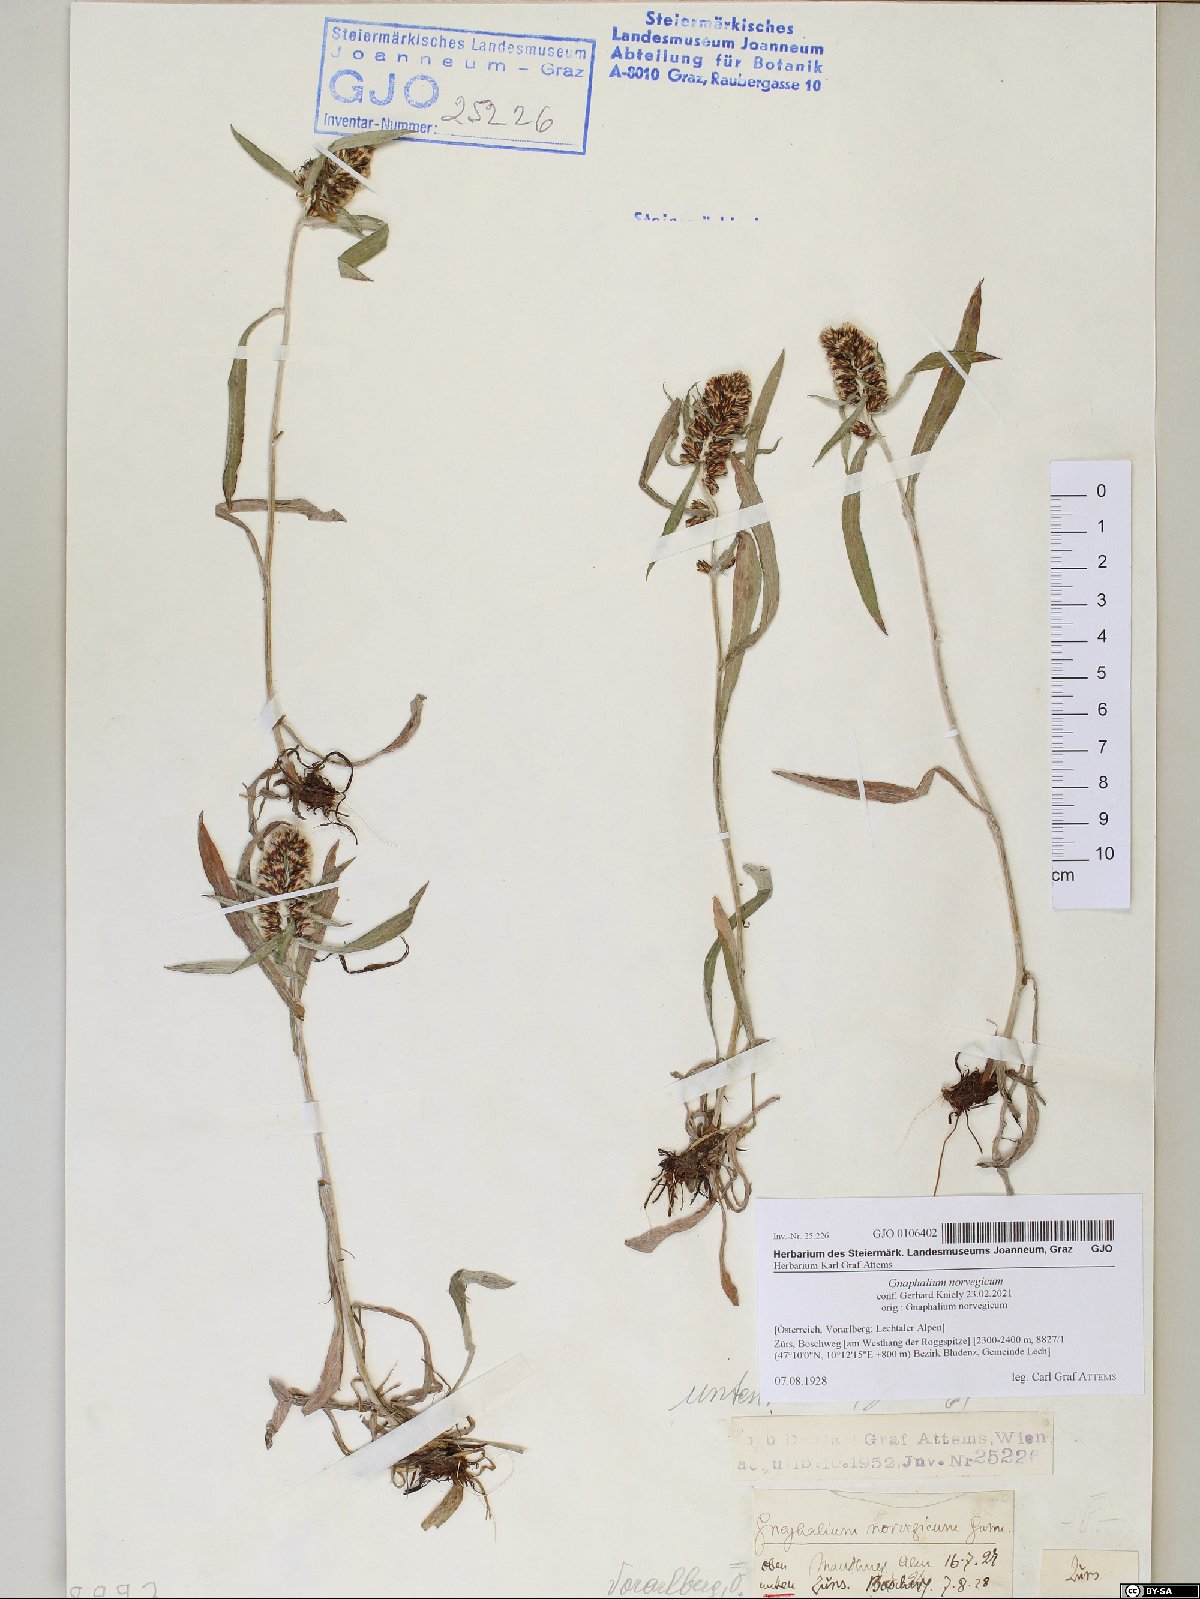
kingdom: Plantae
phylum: Tracheophyta
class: Magnoliopsida
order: Asterales
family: Asteraceae
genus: Omalotheca
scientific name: Omalotheca norvegica
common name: Norwegian arctic-cudweed
